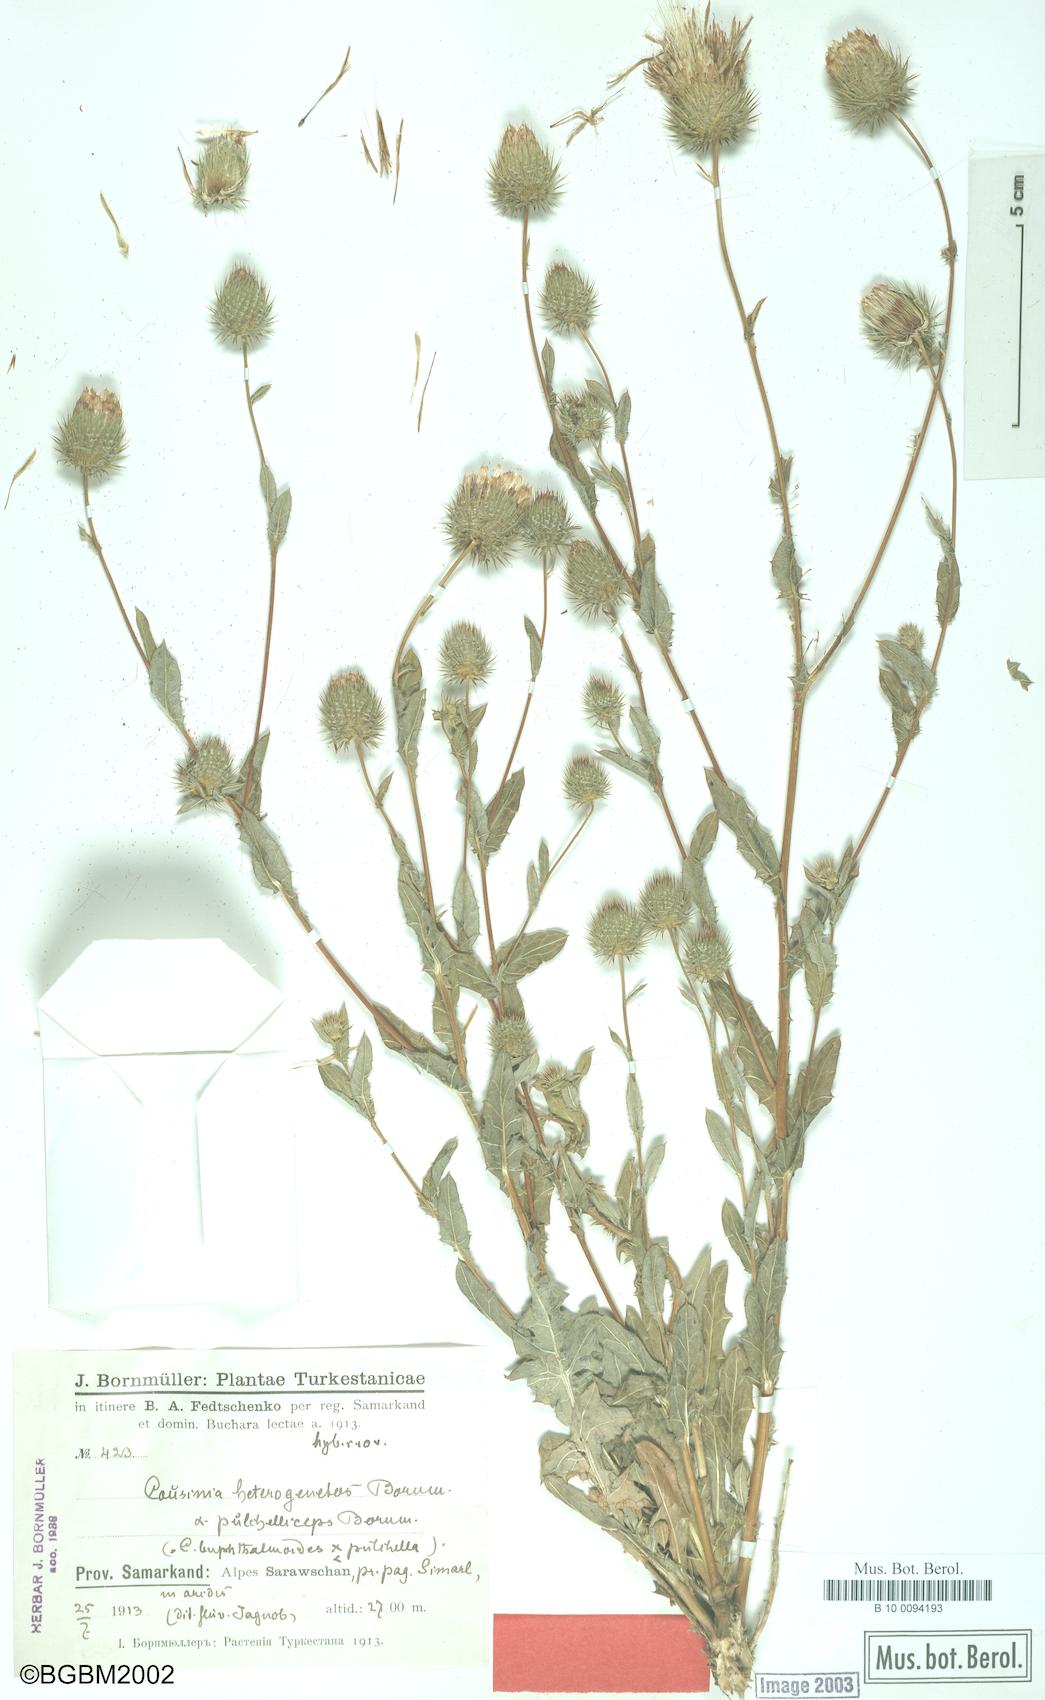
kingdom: Plantae
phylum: Tracheophyta
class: Magnoliopsida
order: Asterales
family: Asteraceae
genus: Cousinia
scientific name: Cousinia heterogenetos
